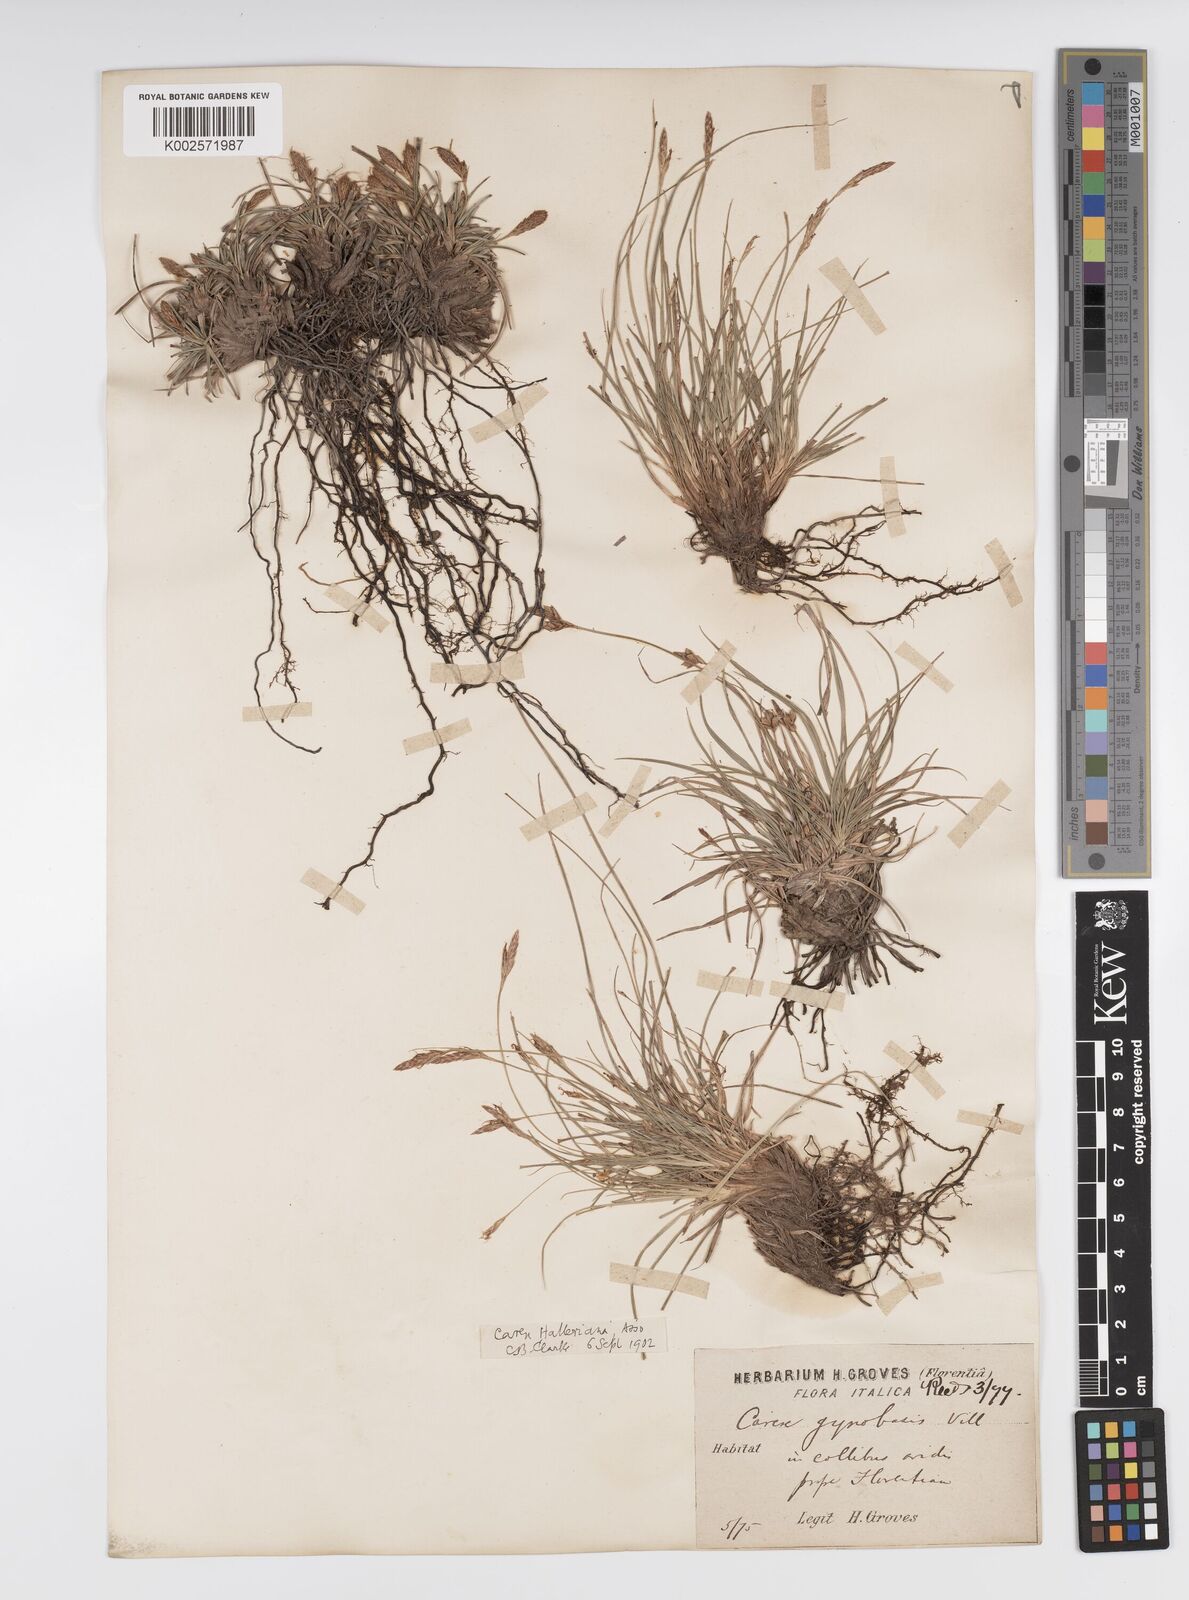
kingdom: Plantae
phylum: Tracheophyta
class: Liliopsida
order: Poales
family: Cyperaceae
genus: Carex
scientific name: Carex halleriana
